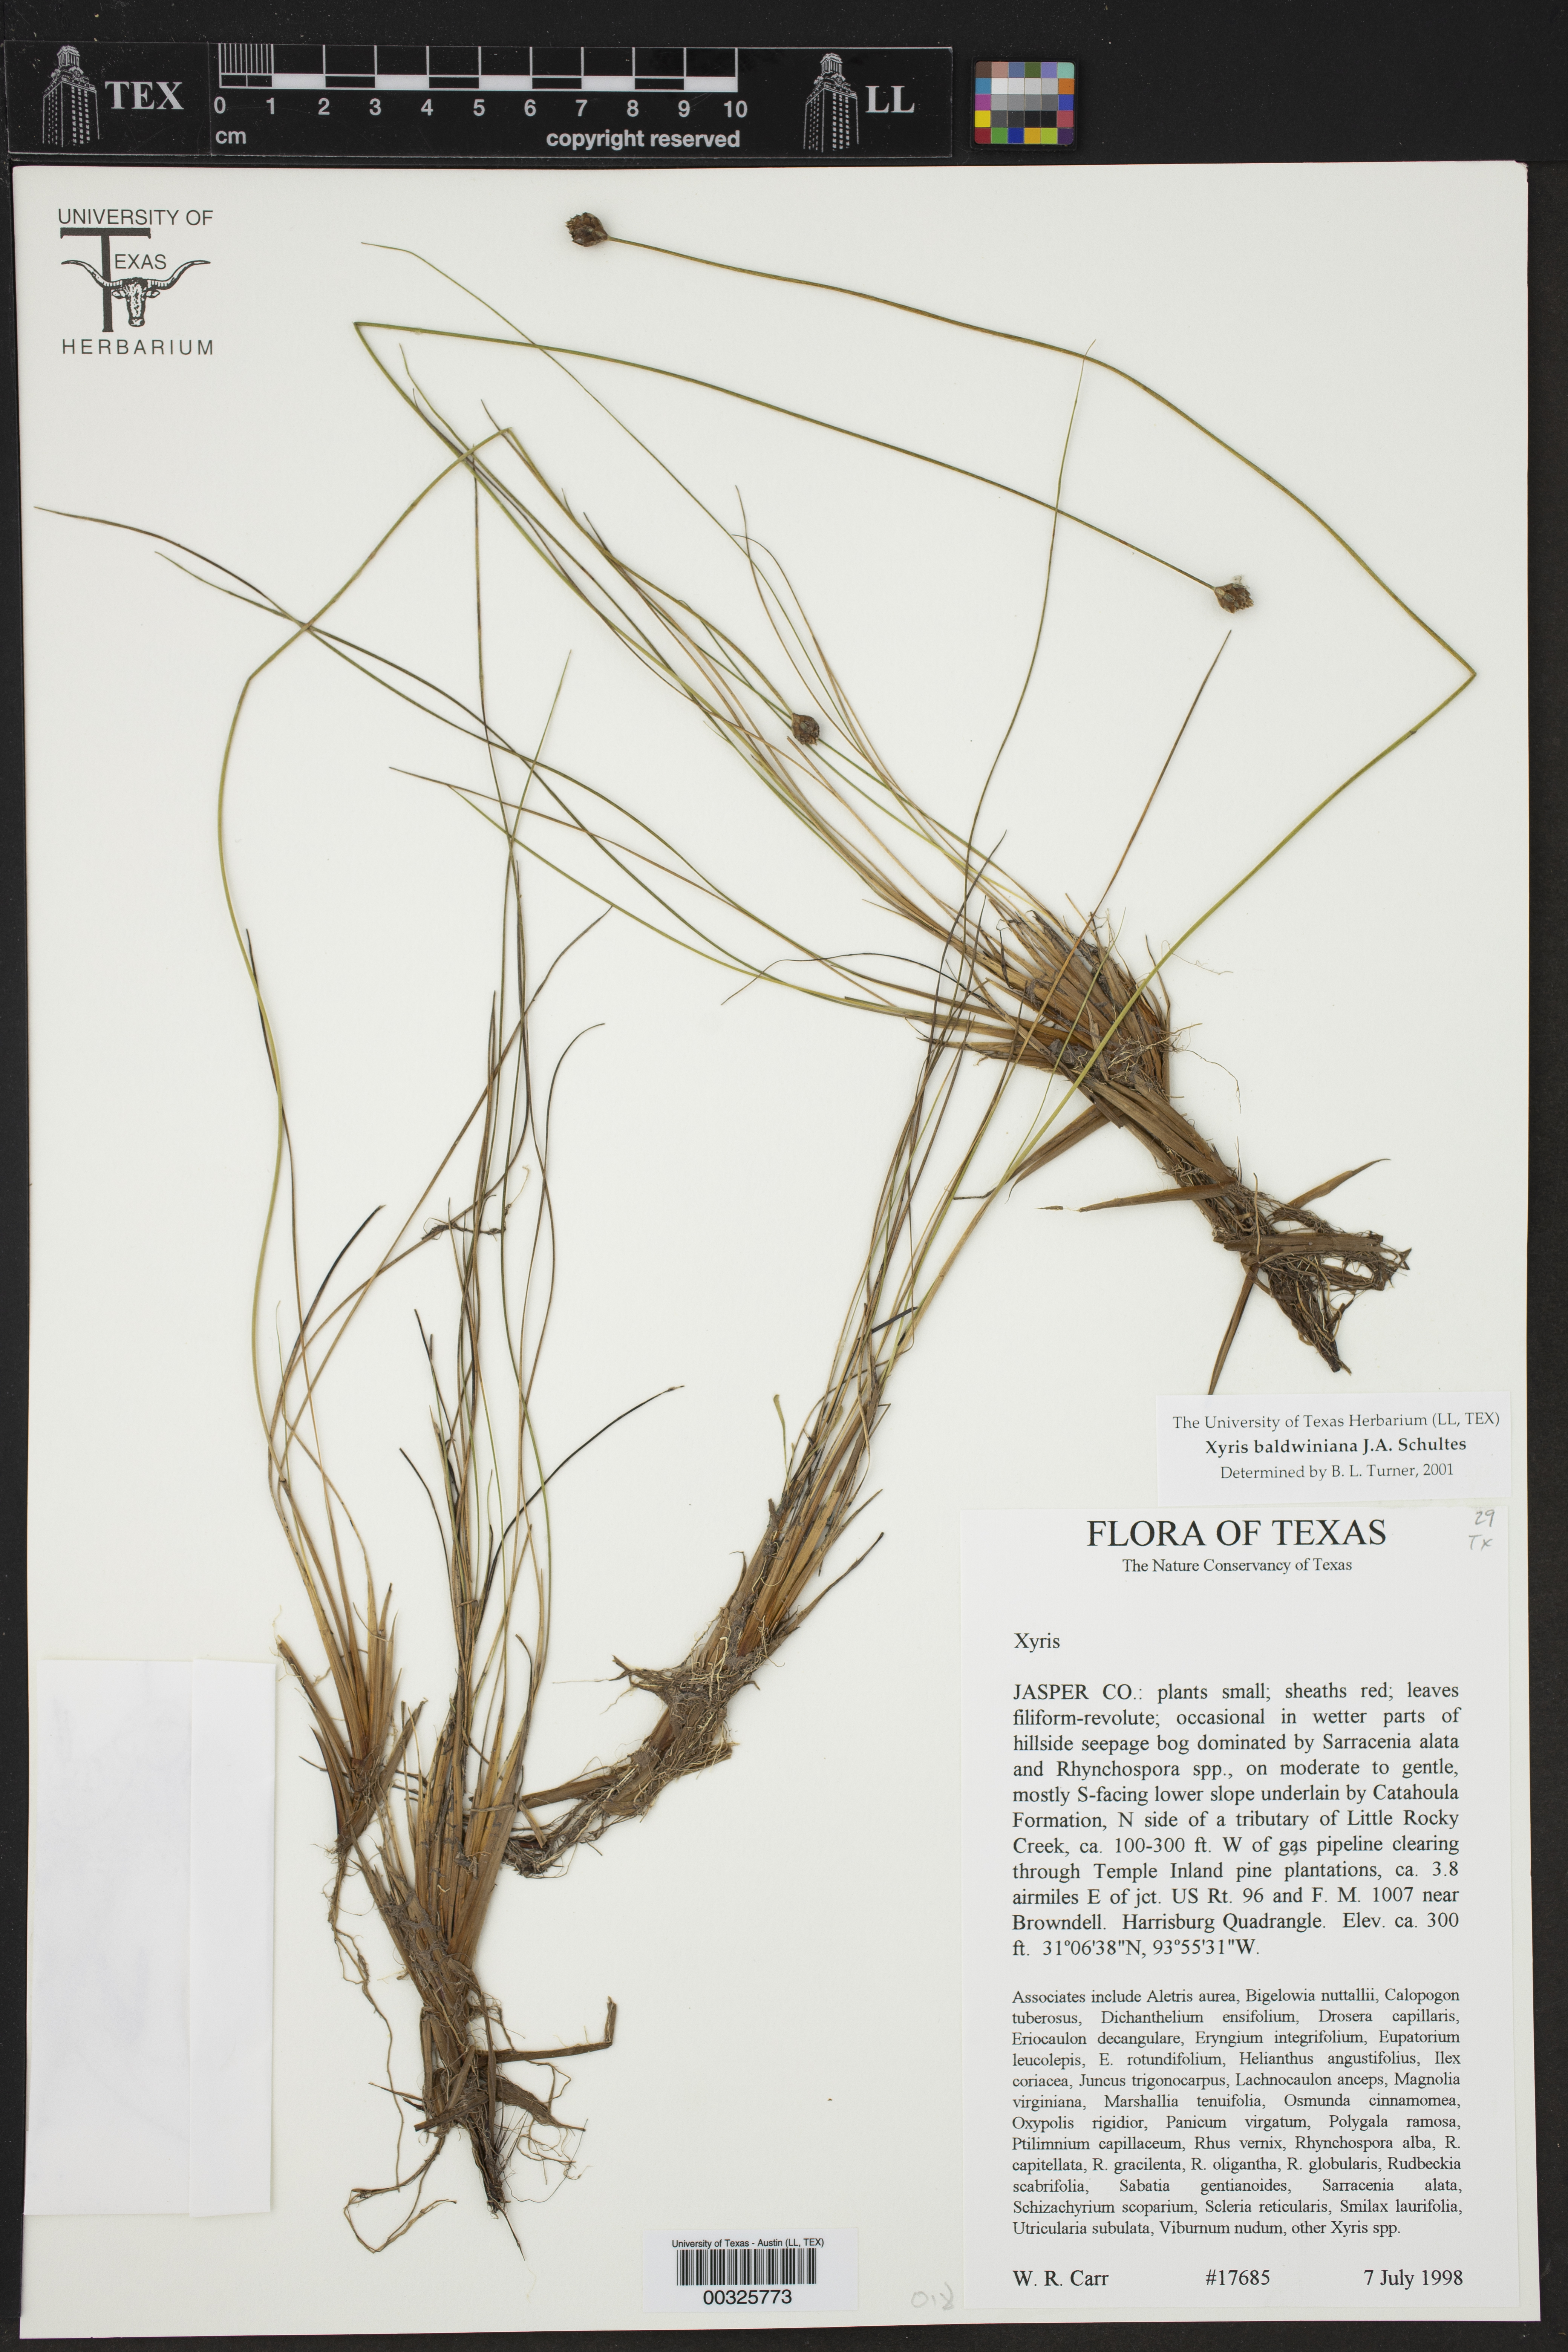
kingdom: Plantae
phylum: Tracheophyta
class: Liliopsida
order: Poales
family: Xyridaceae
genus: Xyris
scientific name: Xyris baldwiniana
